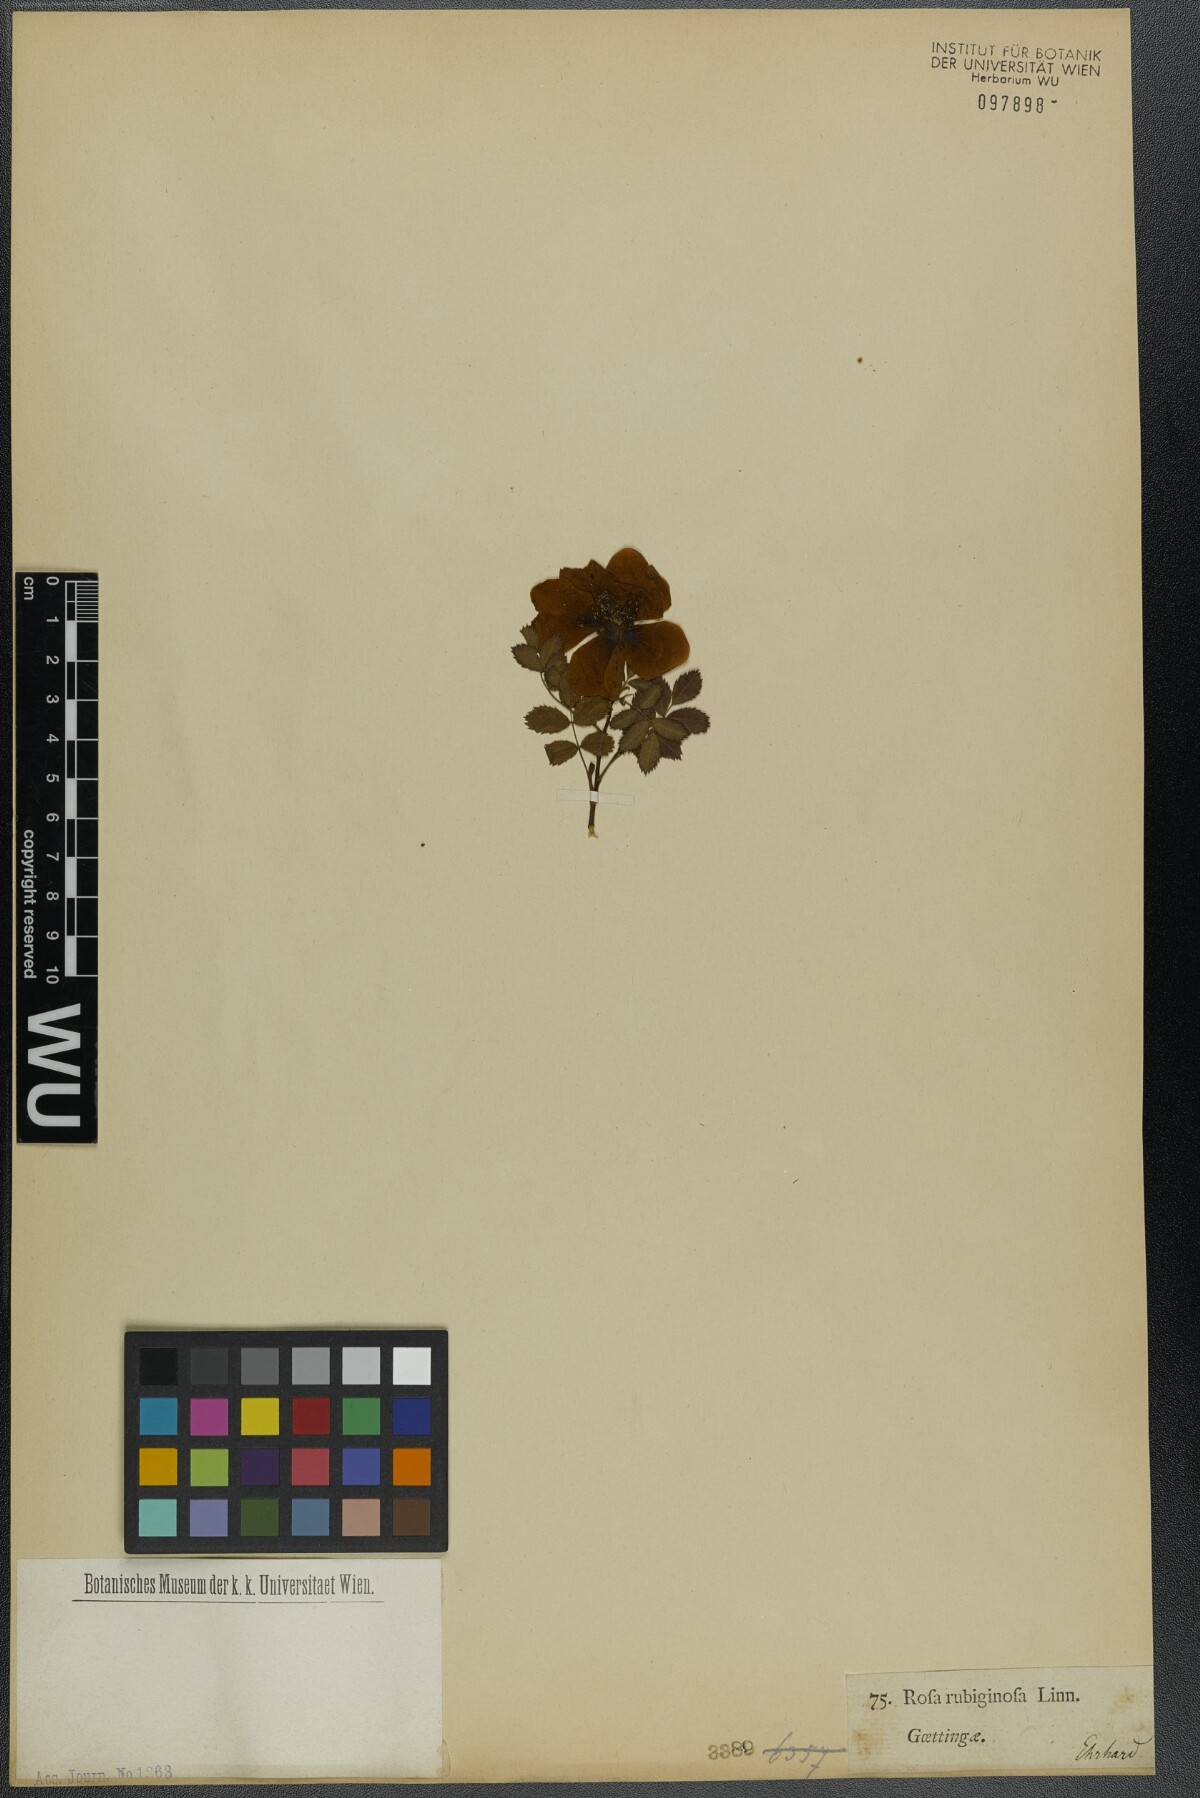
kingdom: Plantae
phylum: Tracheophyta
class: Magnoliopsida
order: Rosales
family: Rosaceae
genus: Rosa
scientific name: Rosa rubiginosa
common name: Sweet-briar
